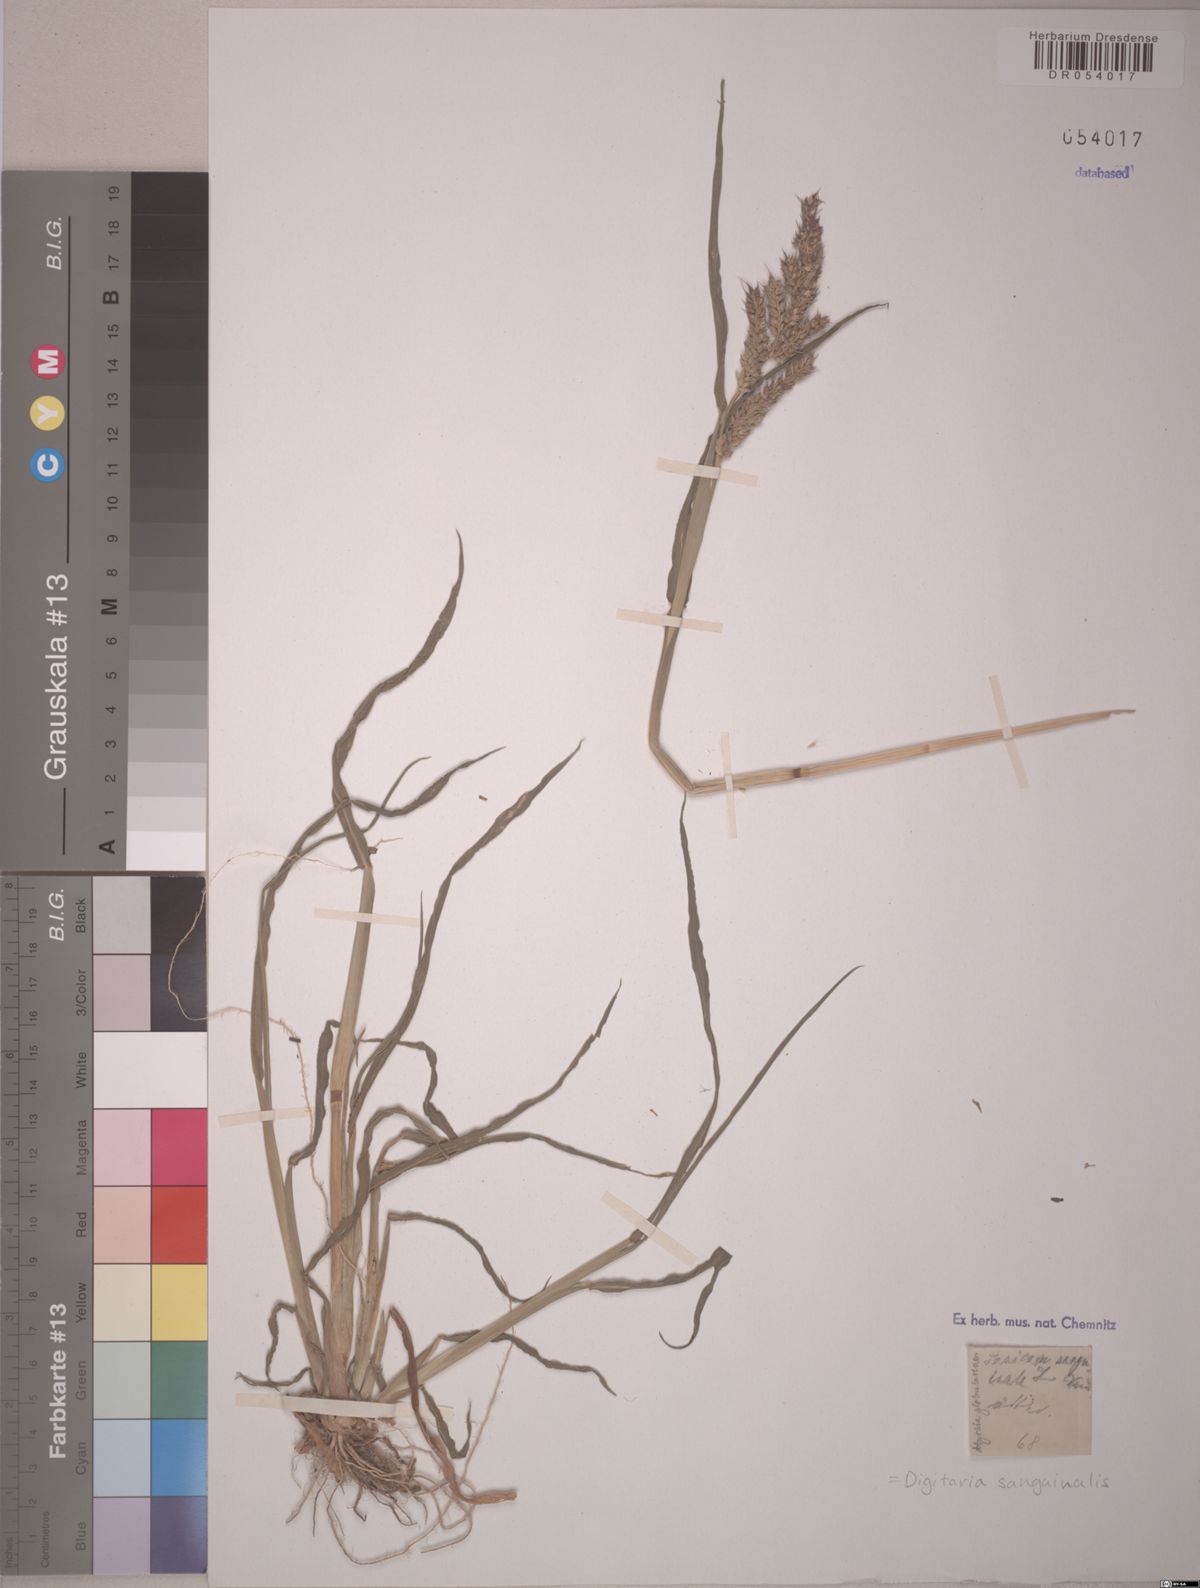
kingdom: Plantae
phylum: Tracheophyta
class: Liliopsida
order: Poales
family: Poaceae
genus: Digitaria
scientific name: Digitaria sanguinalis
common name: Hairy crabgrass
